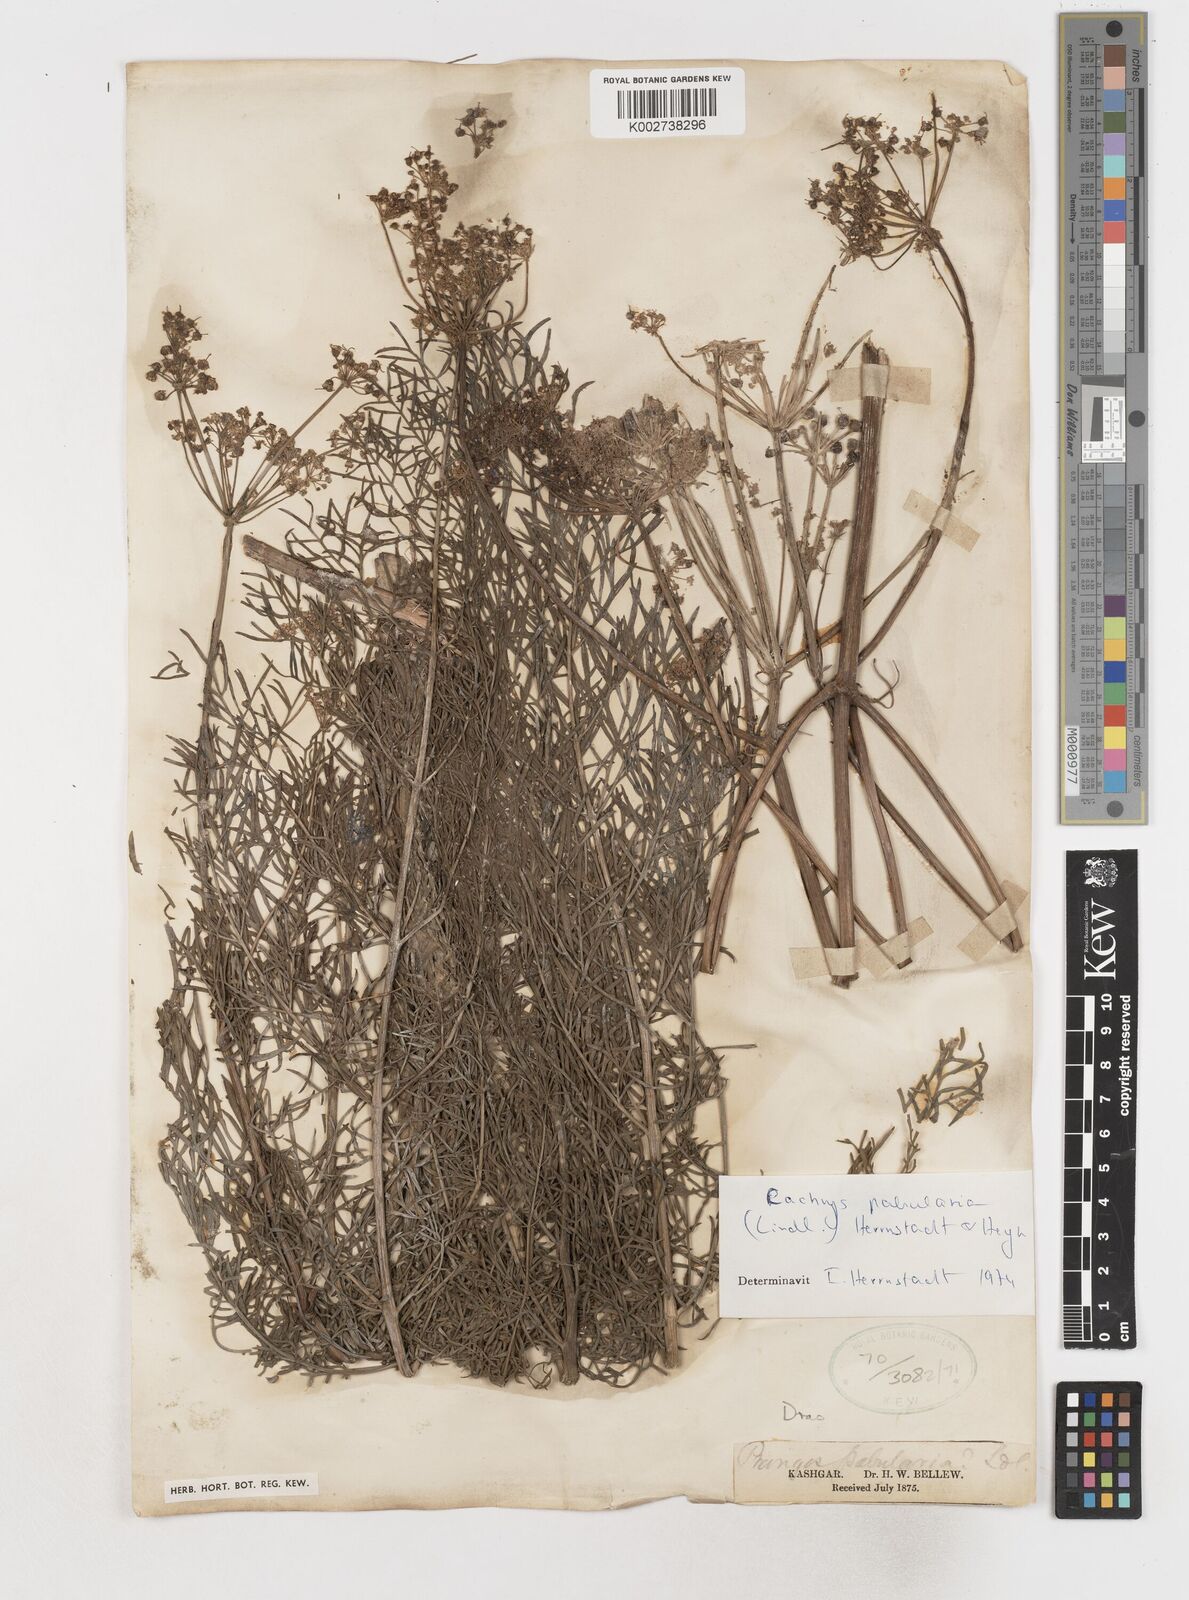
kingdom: Plantae
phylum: Tracheophyta
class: Magnoliopsida
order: Apiales
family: Apiaceae
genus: Prangos
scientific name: Prangos
